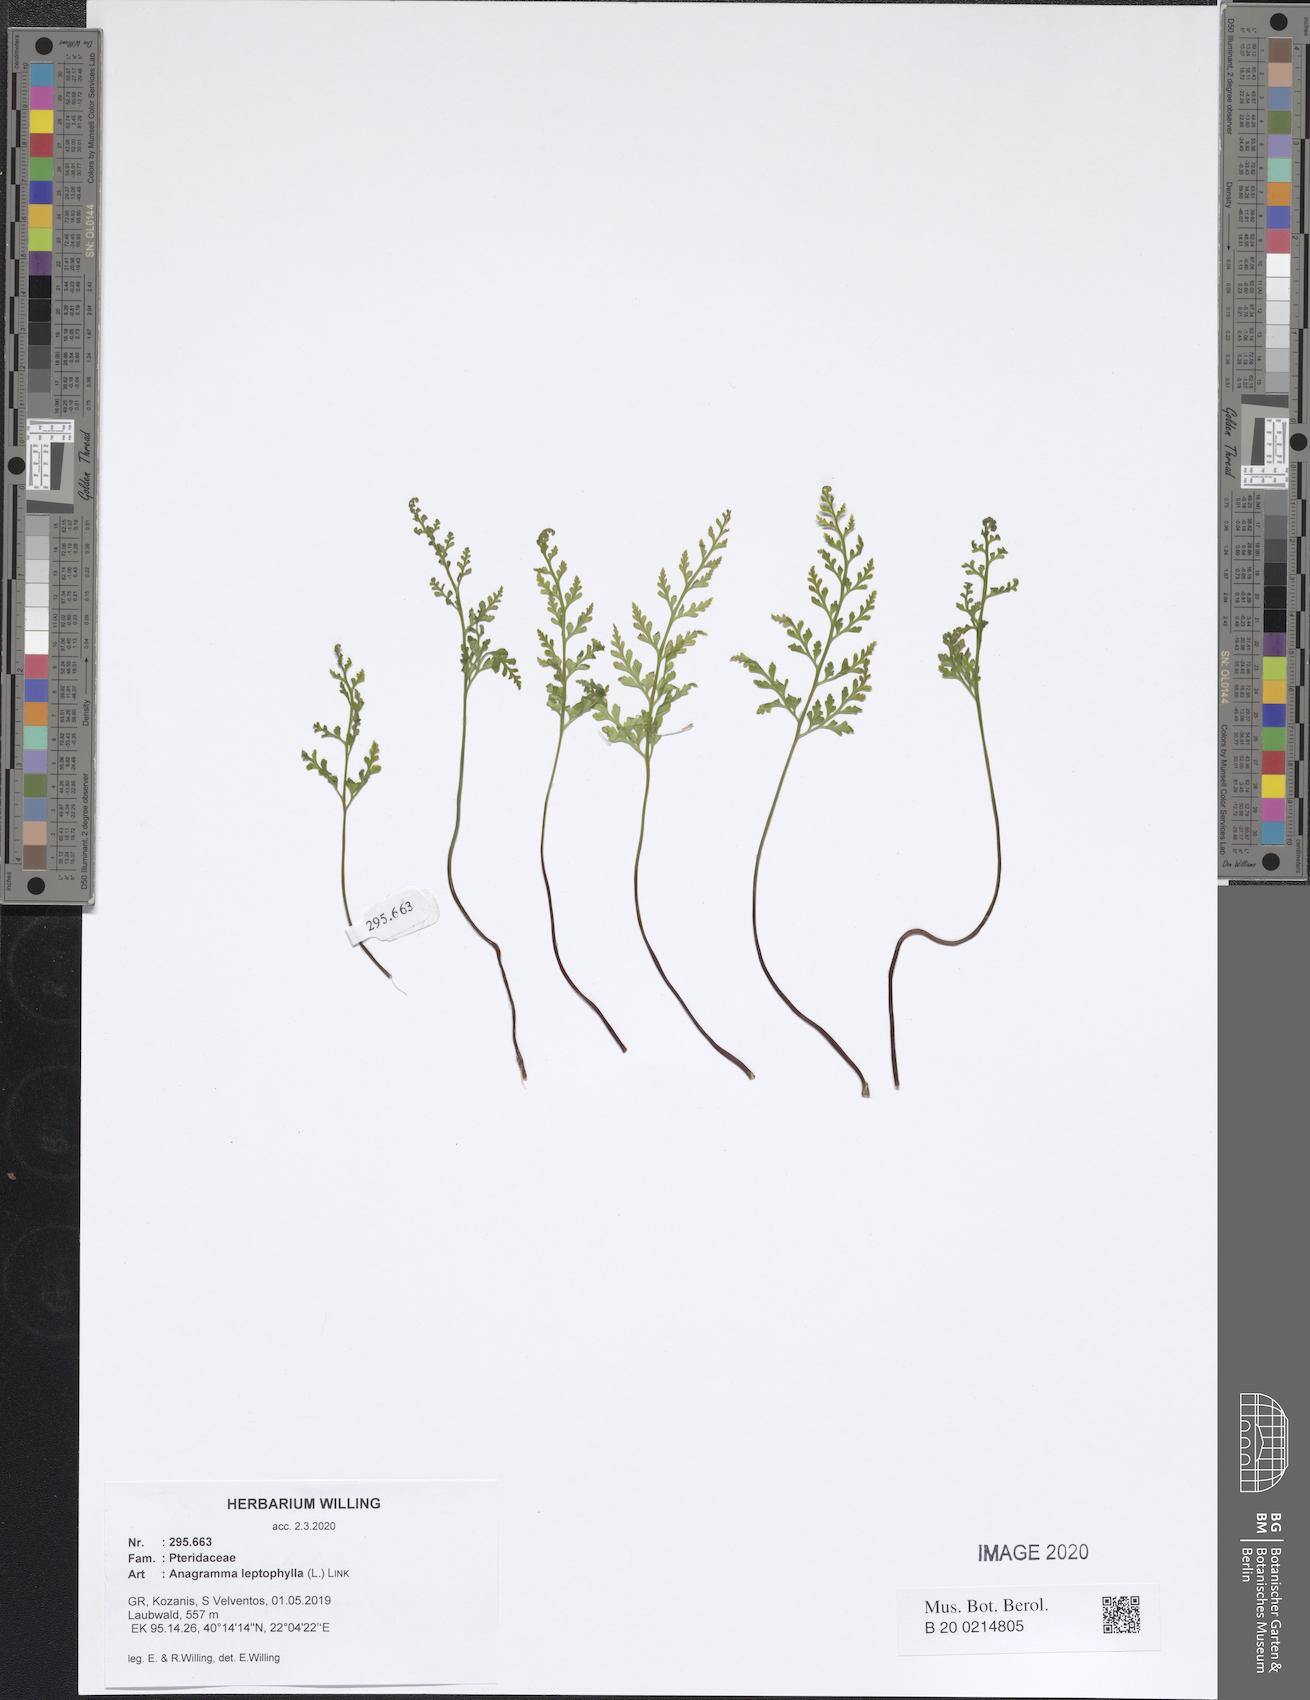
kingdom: Plantae
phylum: Tracheophyta
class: Polypodiopsida
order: Polypodiales
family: Pteridaceae
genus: Anogramma
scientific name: Anogramma leptophylla
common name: Jersey fern
